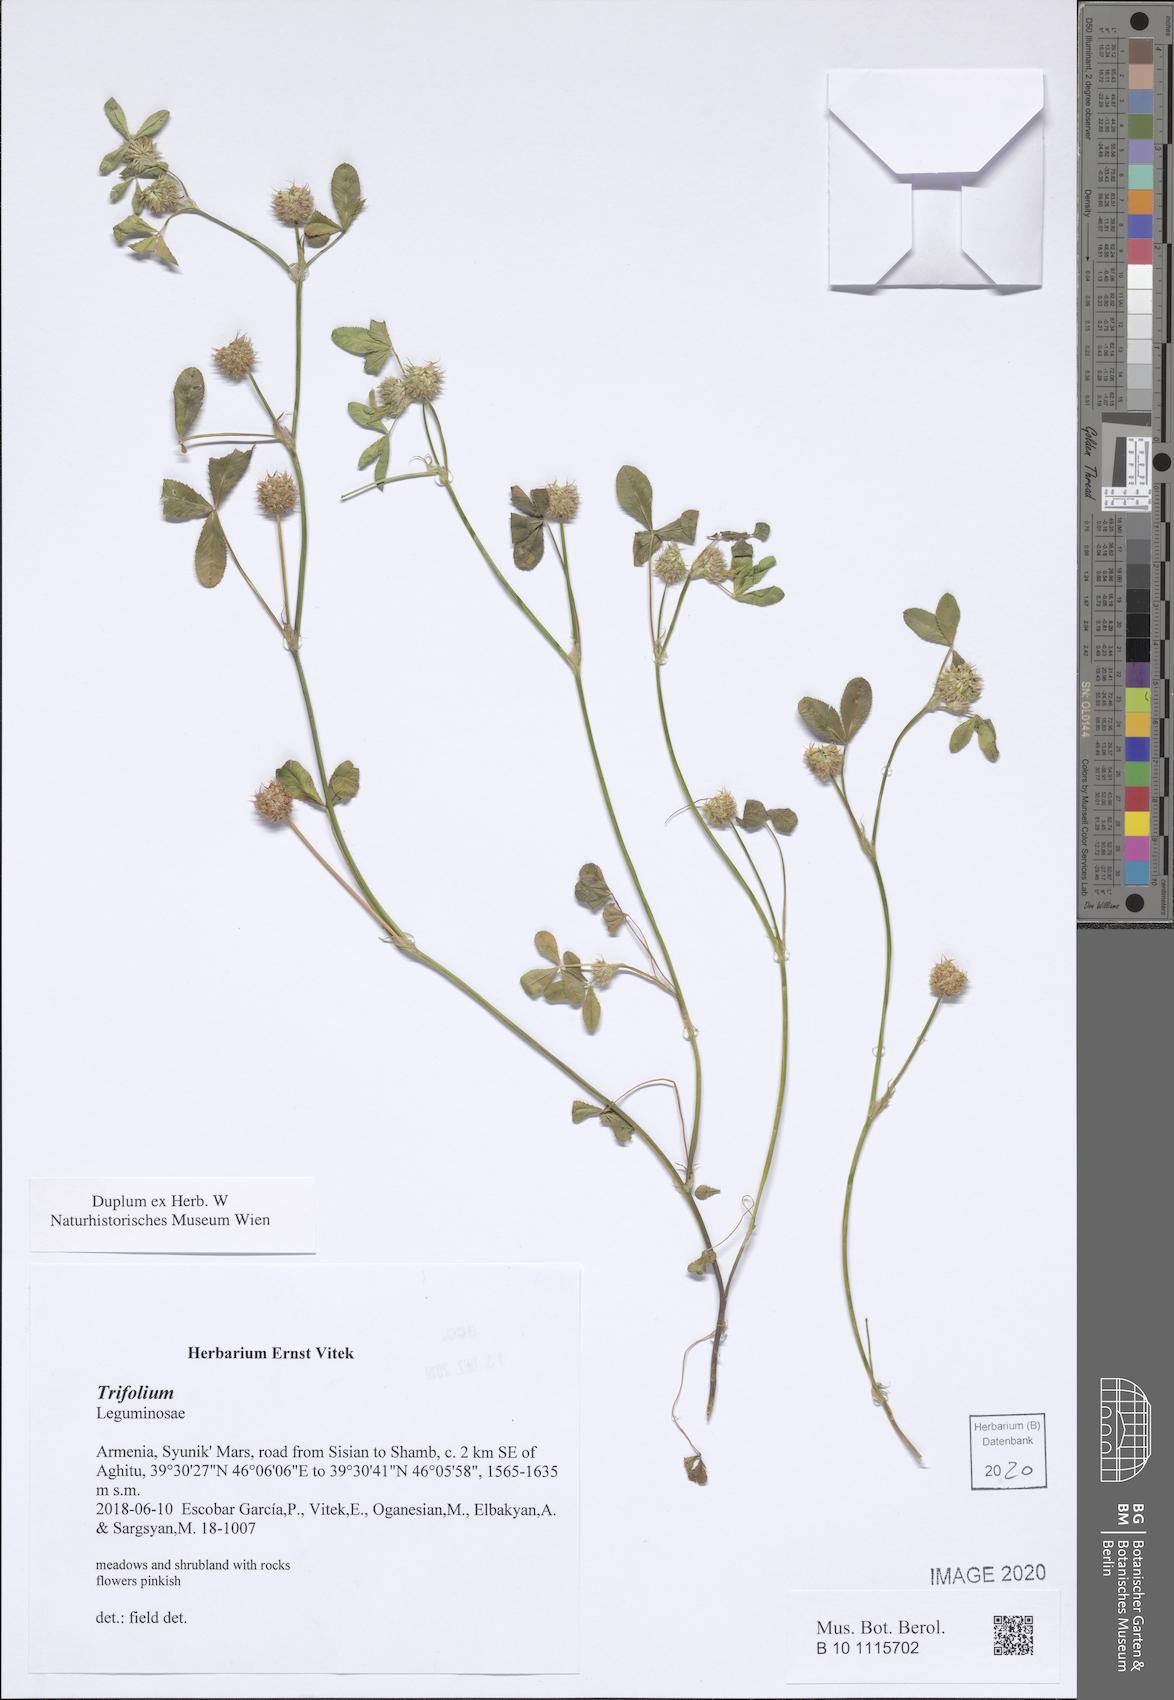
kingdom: Plantae
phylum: Tracheophyta
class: Magnoliopsida
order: Fabales
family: Fabaceae
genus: Trifolium
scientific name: Trifolium
